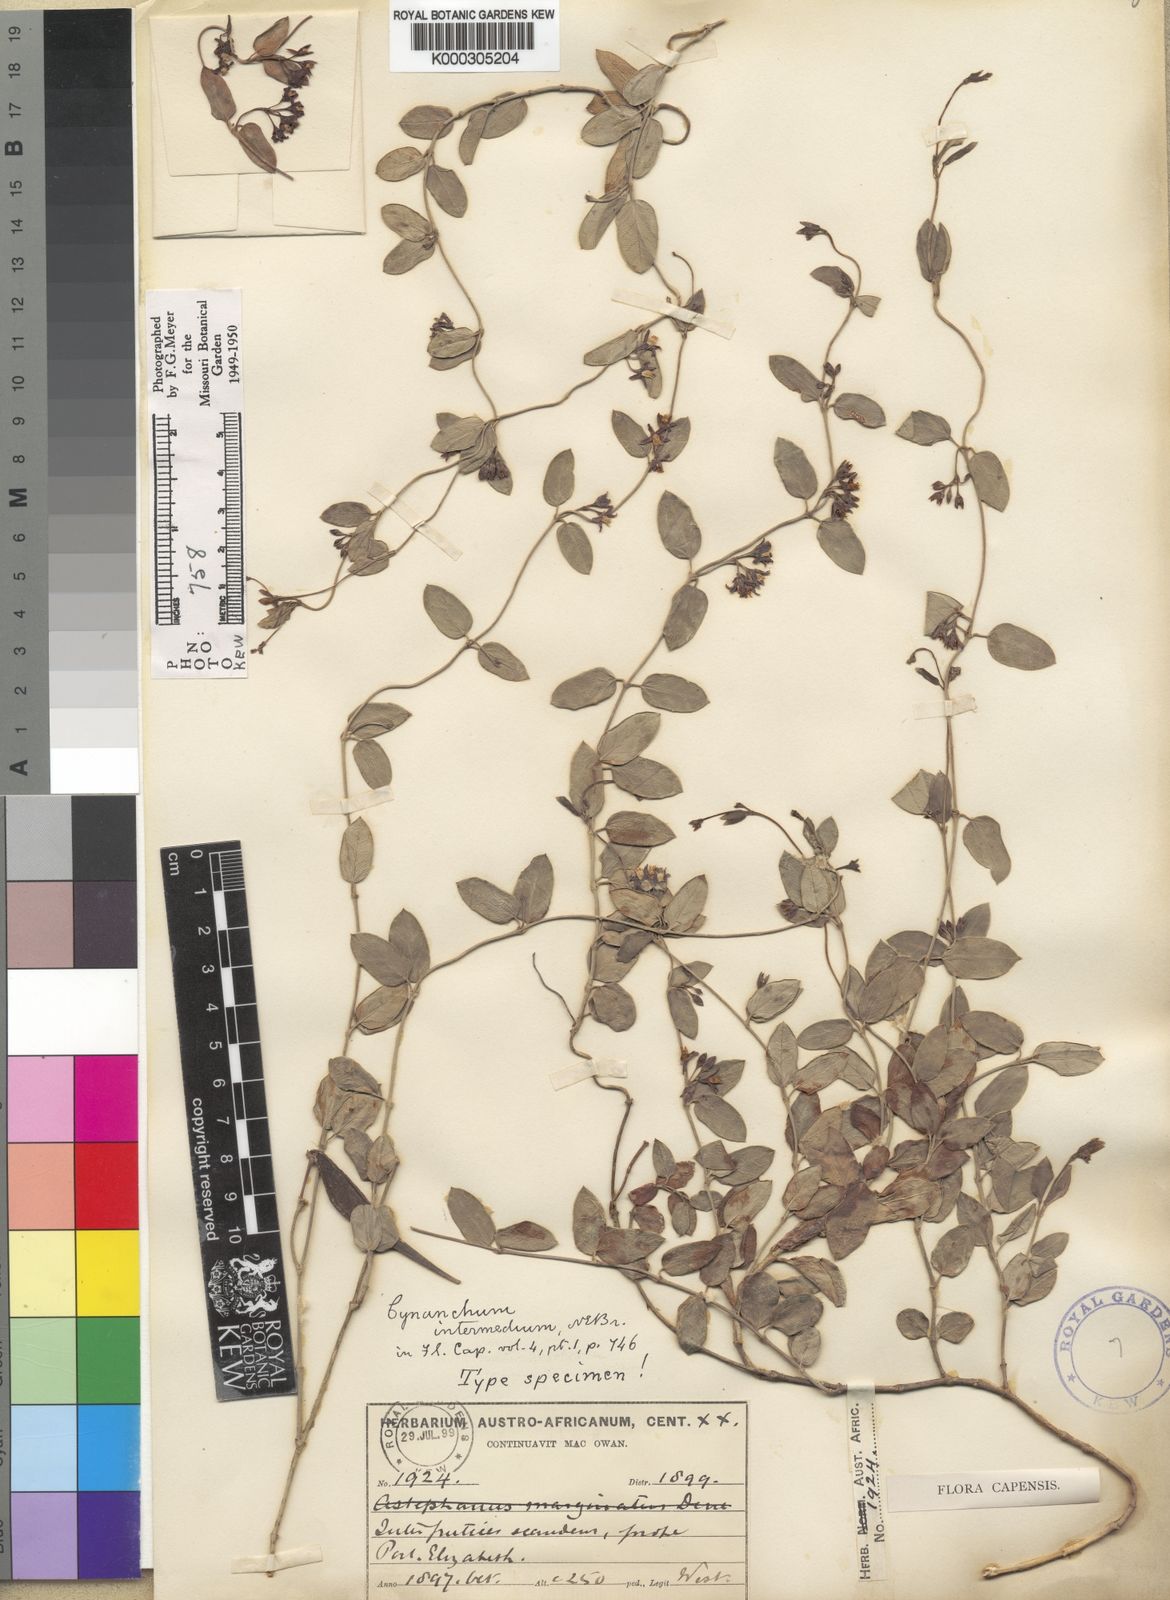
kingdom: Plantae
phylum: Tracheophyta
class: Magnoliopsida
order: Gentianales
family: Apocynaceae
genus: Cynanchum
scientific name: Cynanchum africanum
